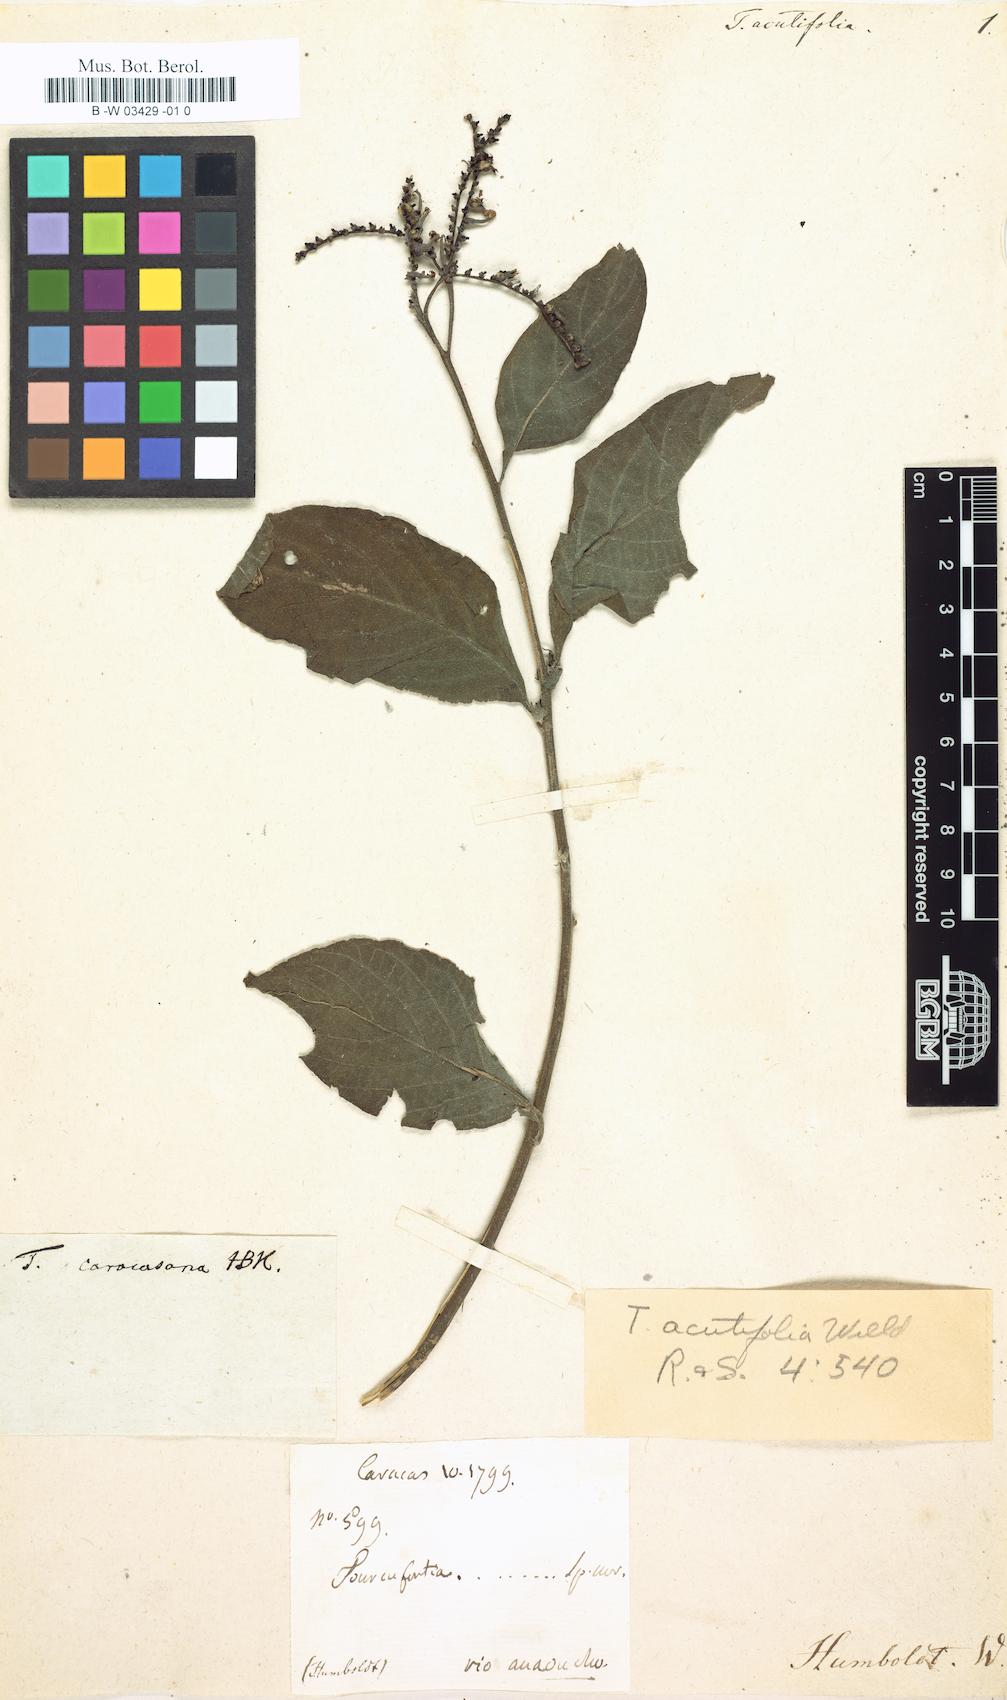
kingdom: Plantae
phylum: Tracheophyta
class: Magnoliopsida
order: Boraginales
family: Heliotropiaceae
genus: Tournefortia
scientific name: Tournefortia caracasana
